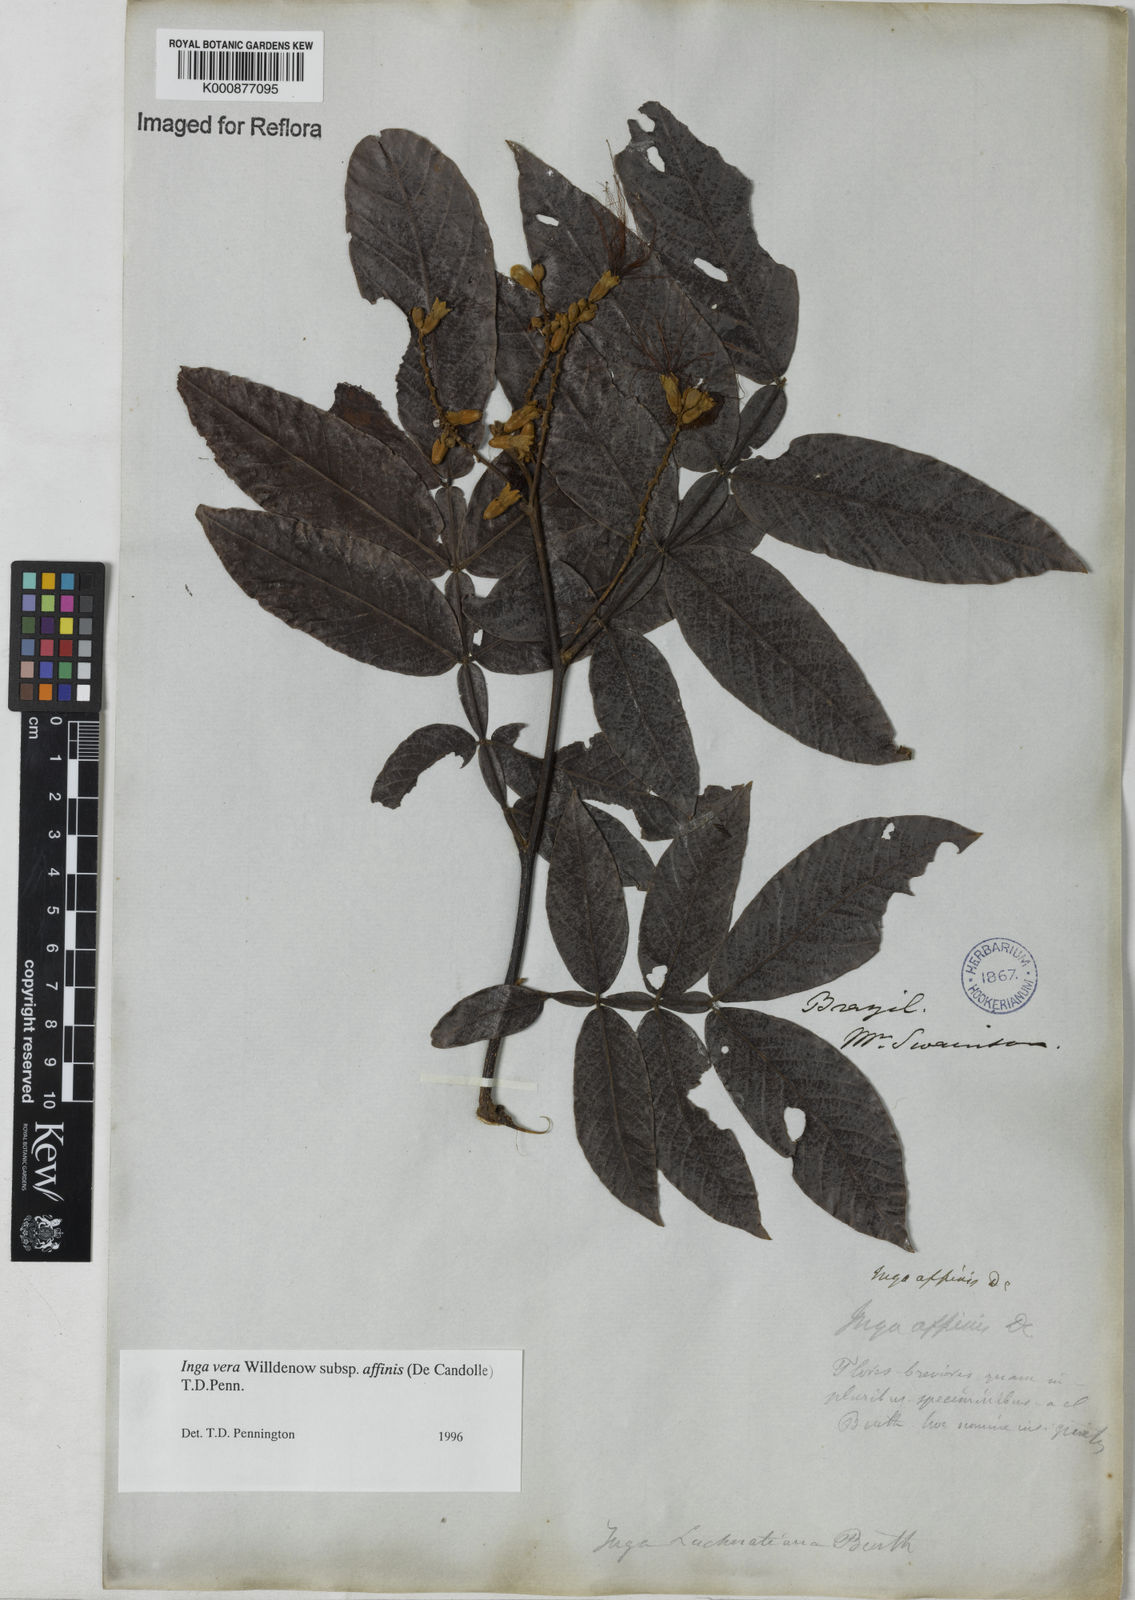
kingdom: Plantae
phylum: Tracheophyta
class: Magnoliopsida
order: Fabales
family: Fabaceae
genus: Inga
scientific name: Inga affinis
